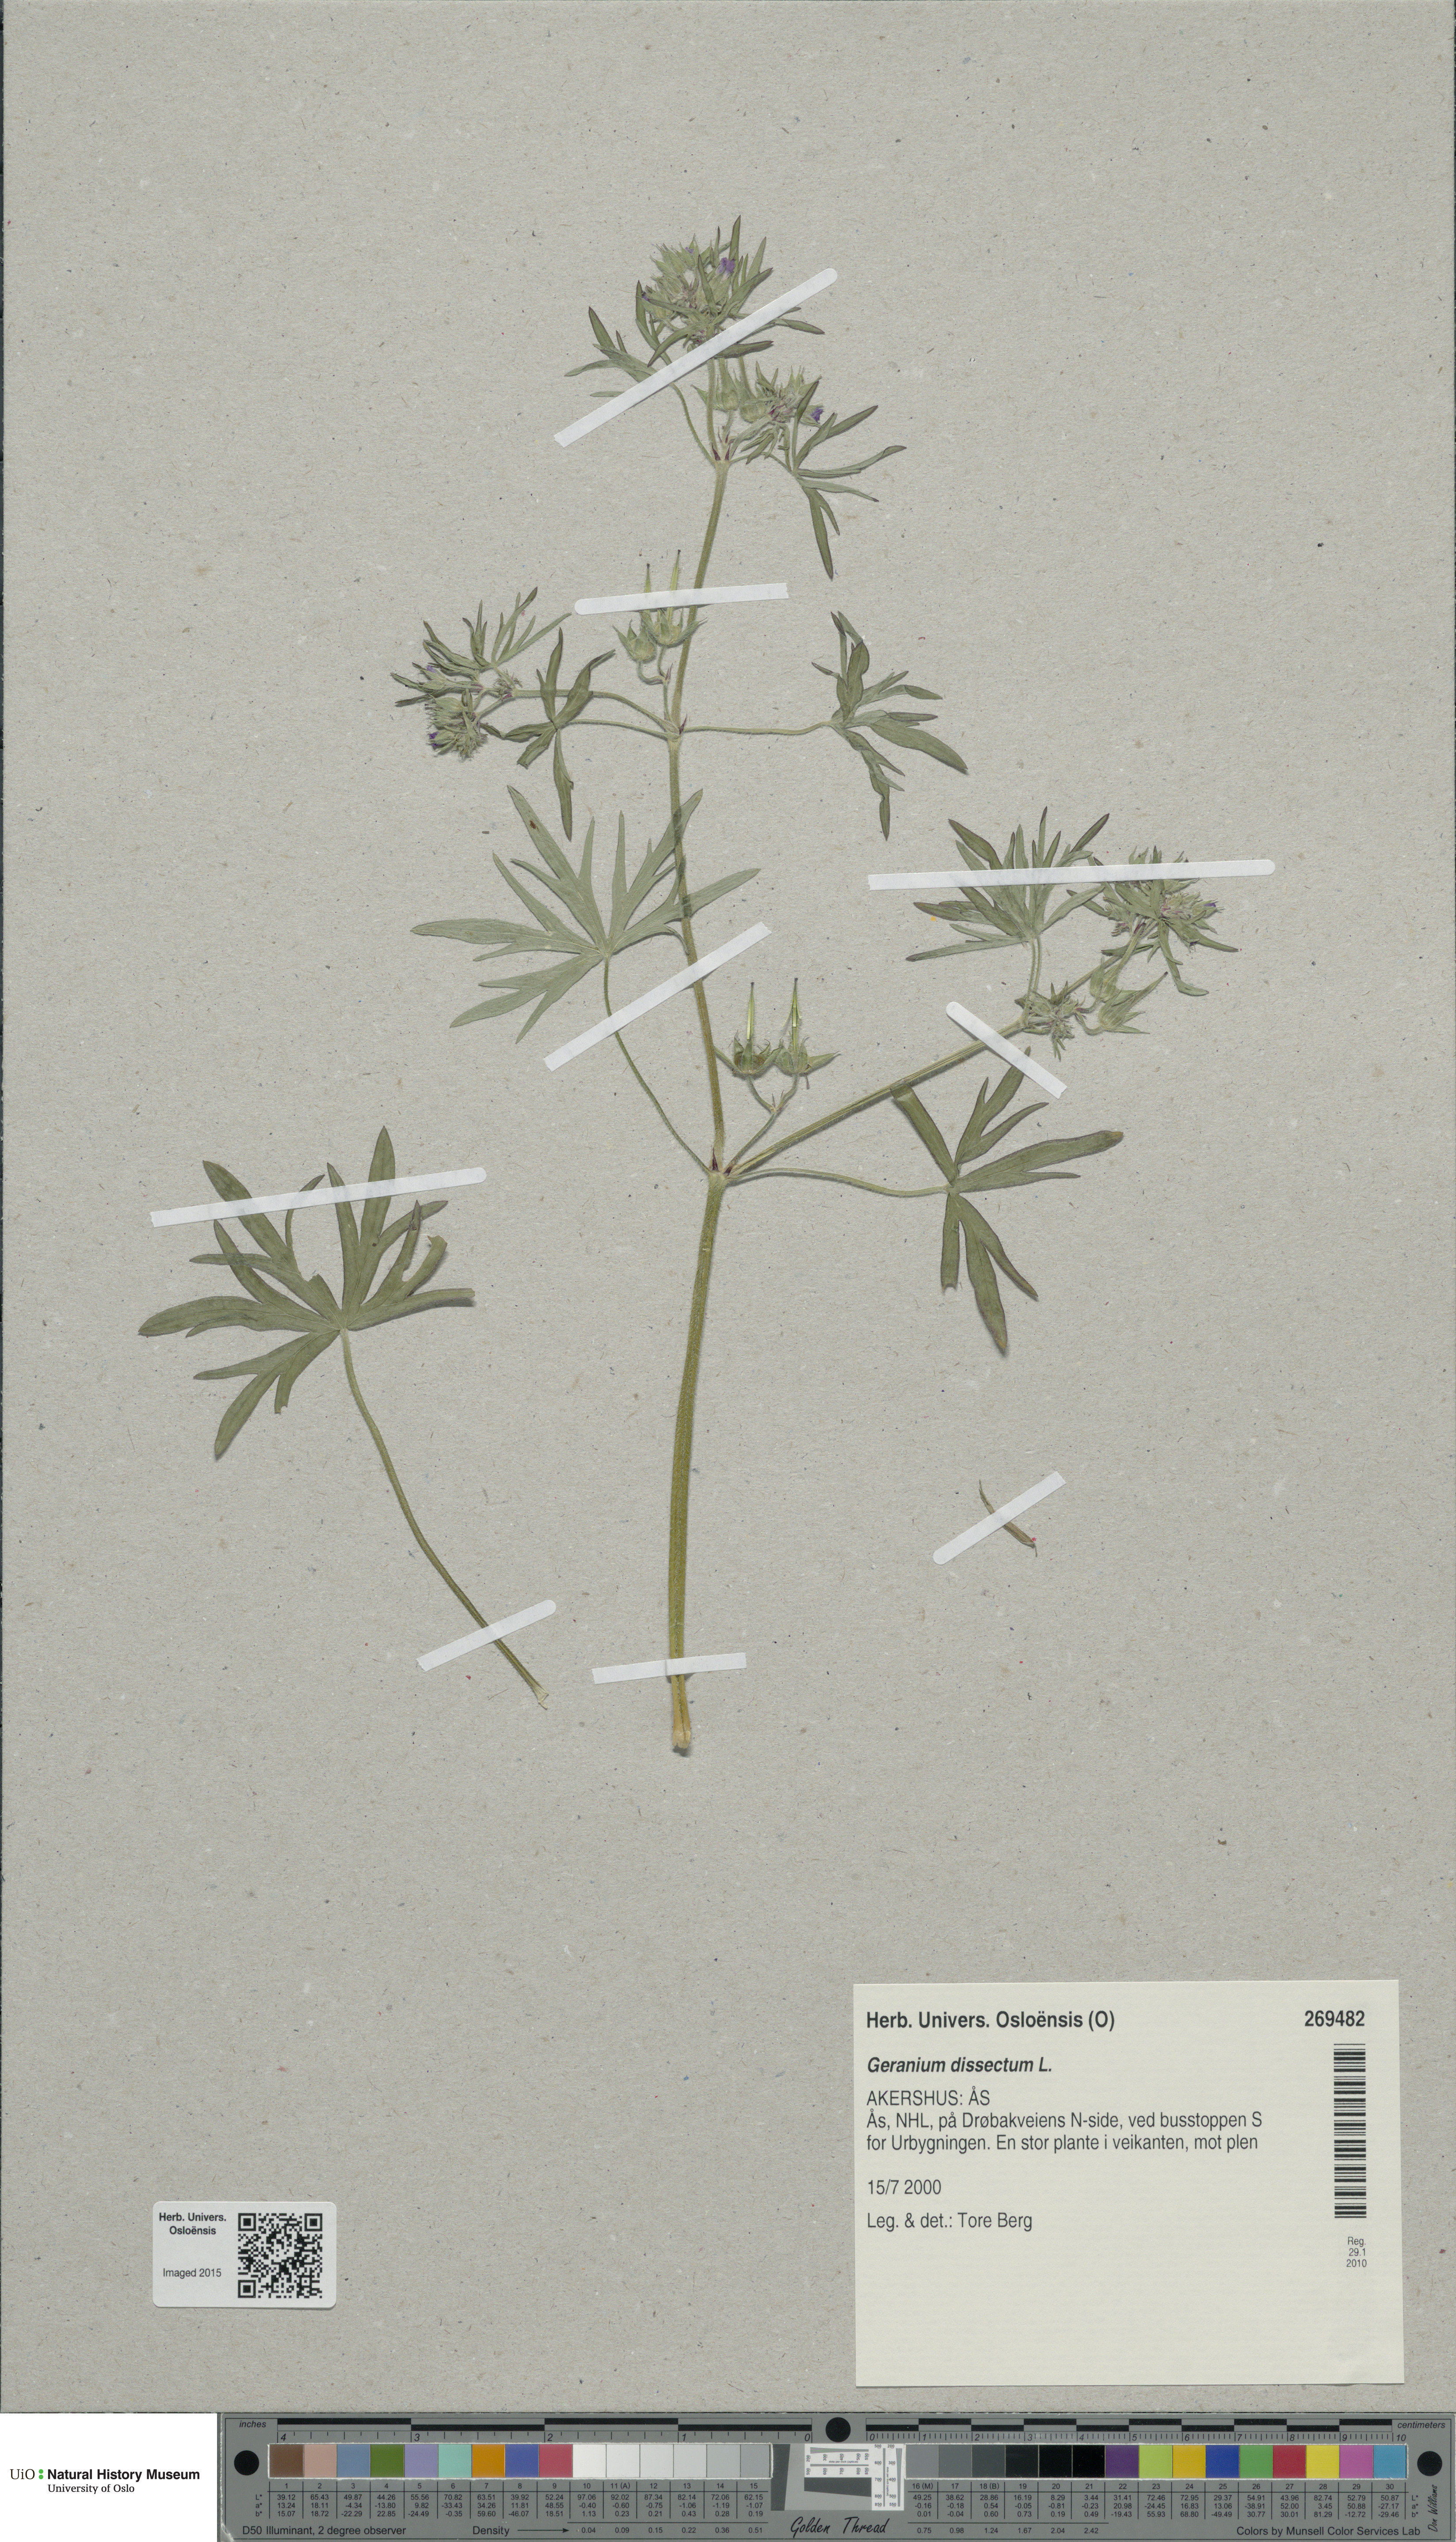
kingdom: Plantae
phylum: Tracheophyta
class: Magnoliopsida
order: Geraniales
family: Geraniaceae
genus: Geranium
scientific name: Geranium dissectum
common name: Cut-leaved crane's-bill
